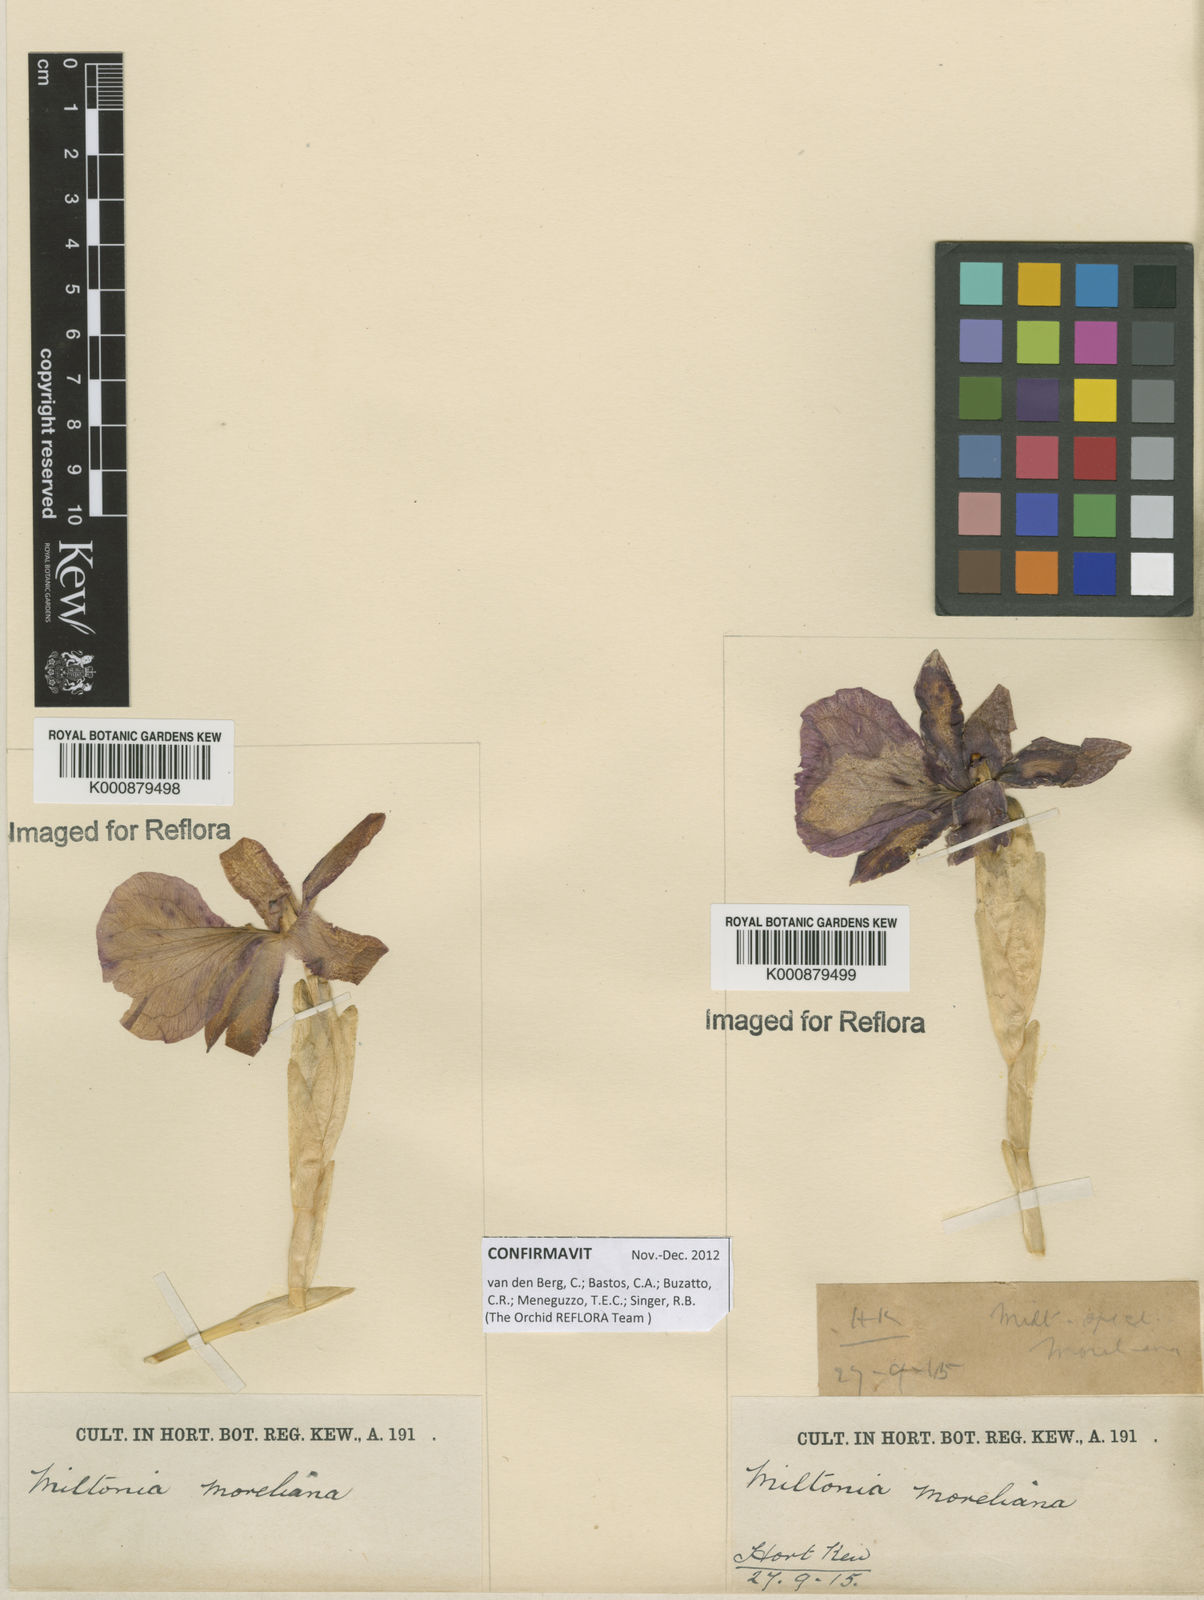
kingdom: Plantae
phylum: Tracheophyta
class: Liliopsida
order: Asparagales
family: Orchidaceae
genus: Miltonia
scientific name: Miltonia moreliana
